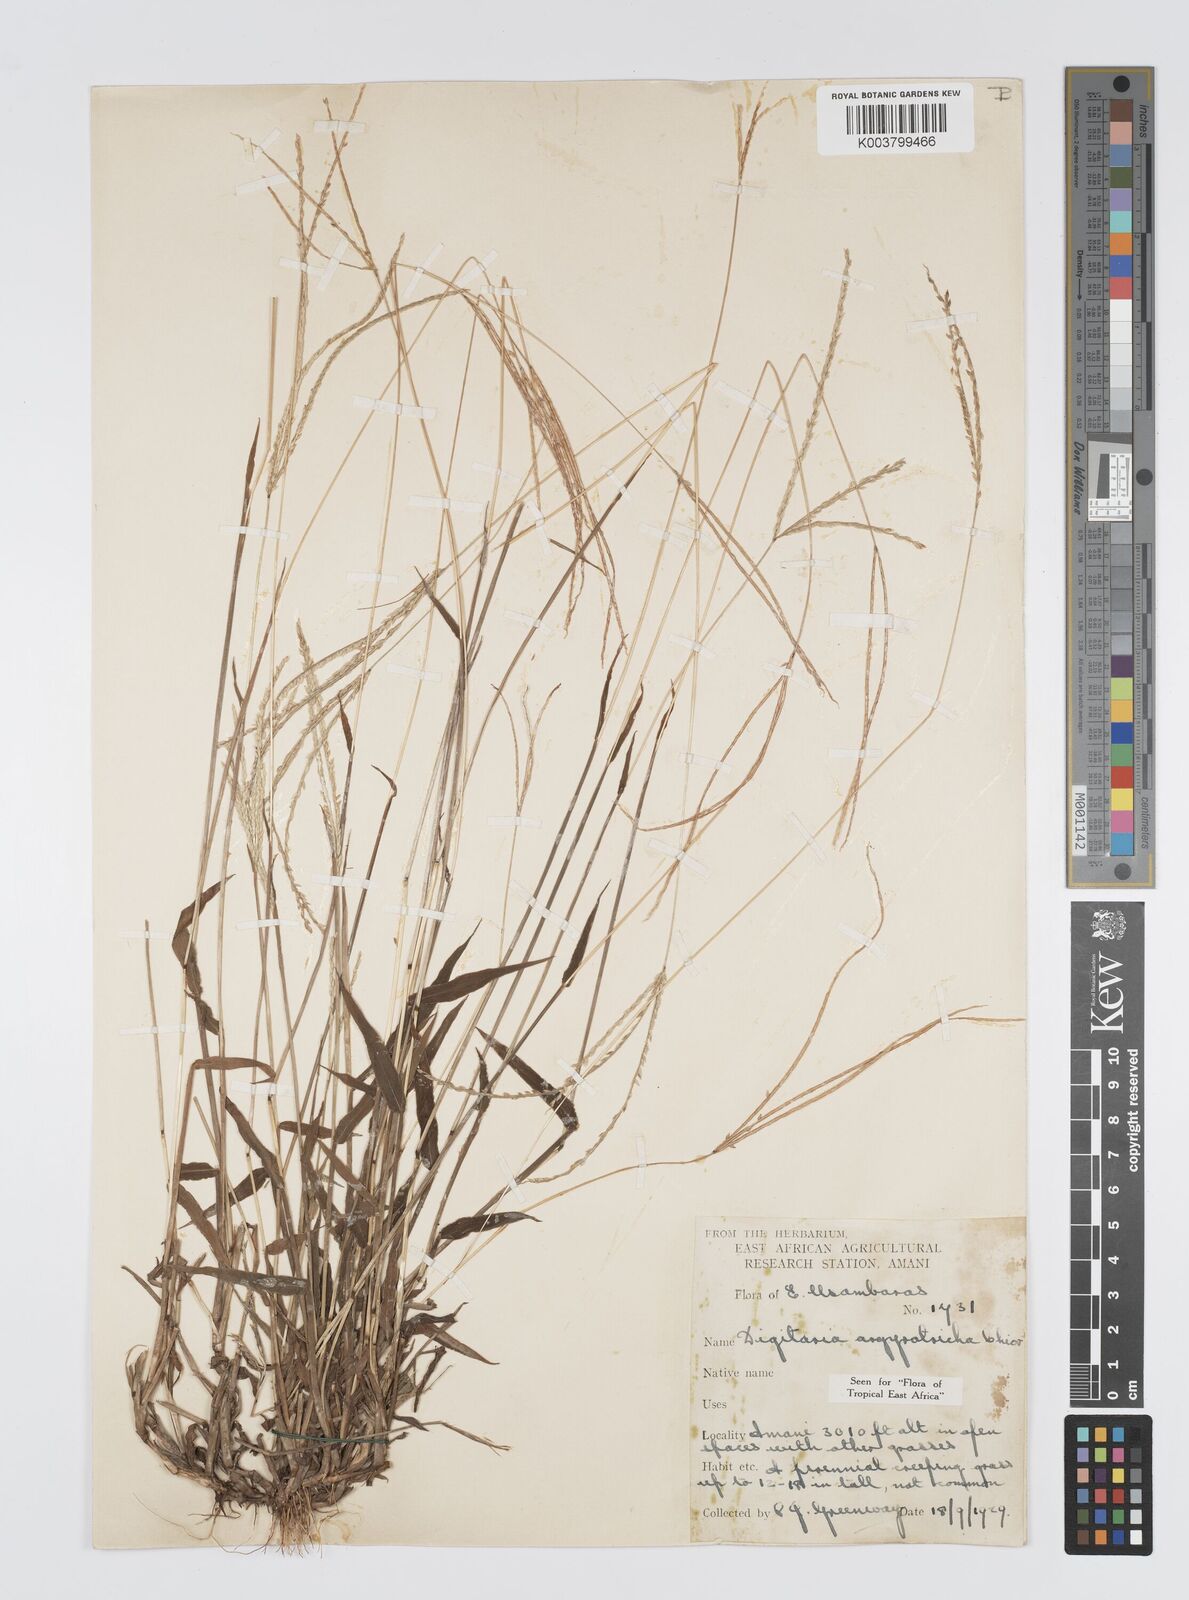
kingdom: Plantae
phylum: Tracheophyta
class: Liliopsida
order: Poales
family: Poaceae
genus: Digitaria
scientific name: Digitaria argyrotricha
